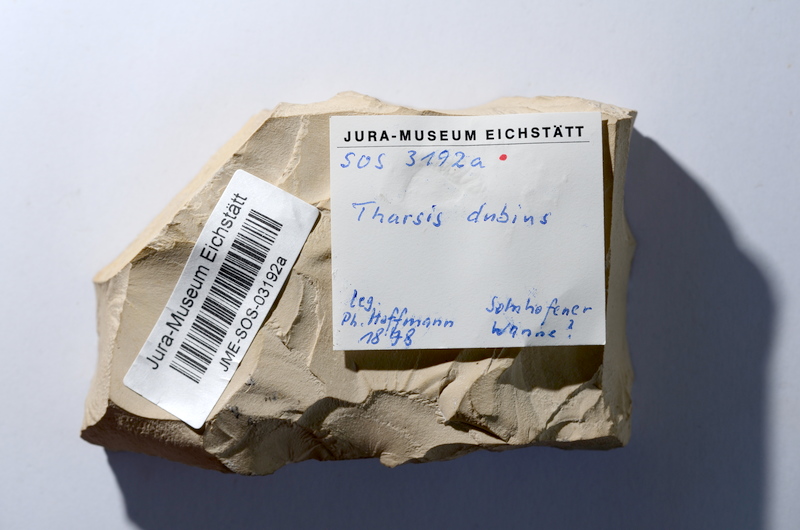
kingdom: Animalia
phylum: Chordata
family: Ascalaboidae
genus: Tharsis
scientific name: Tharsis dubius
